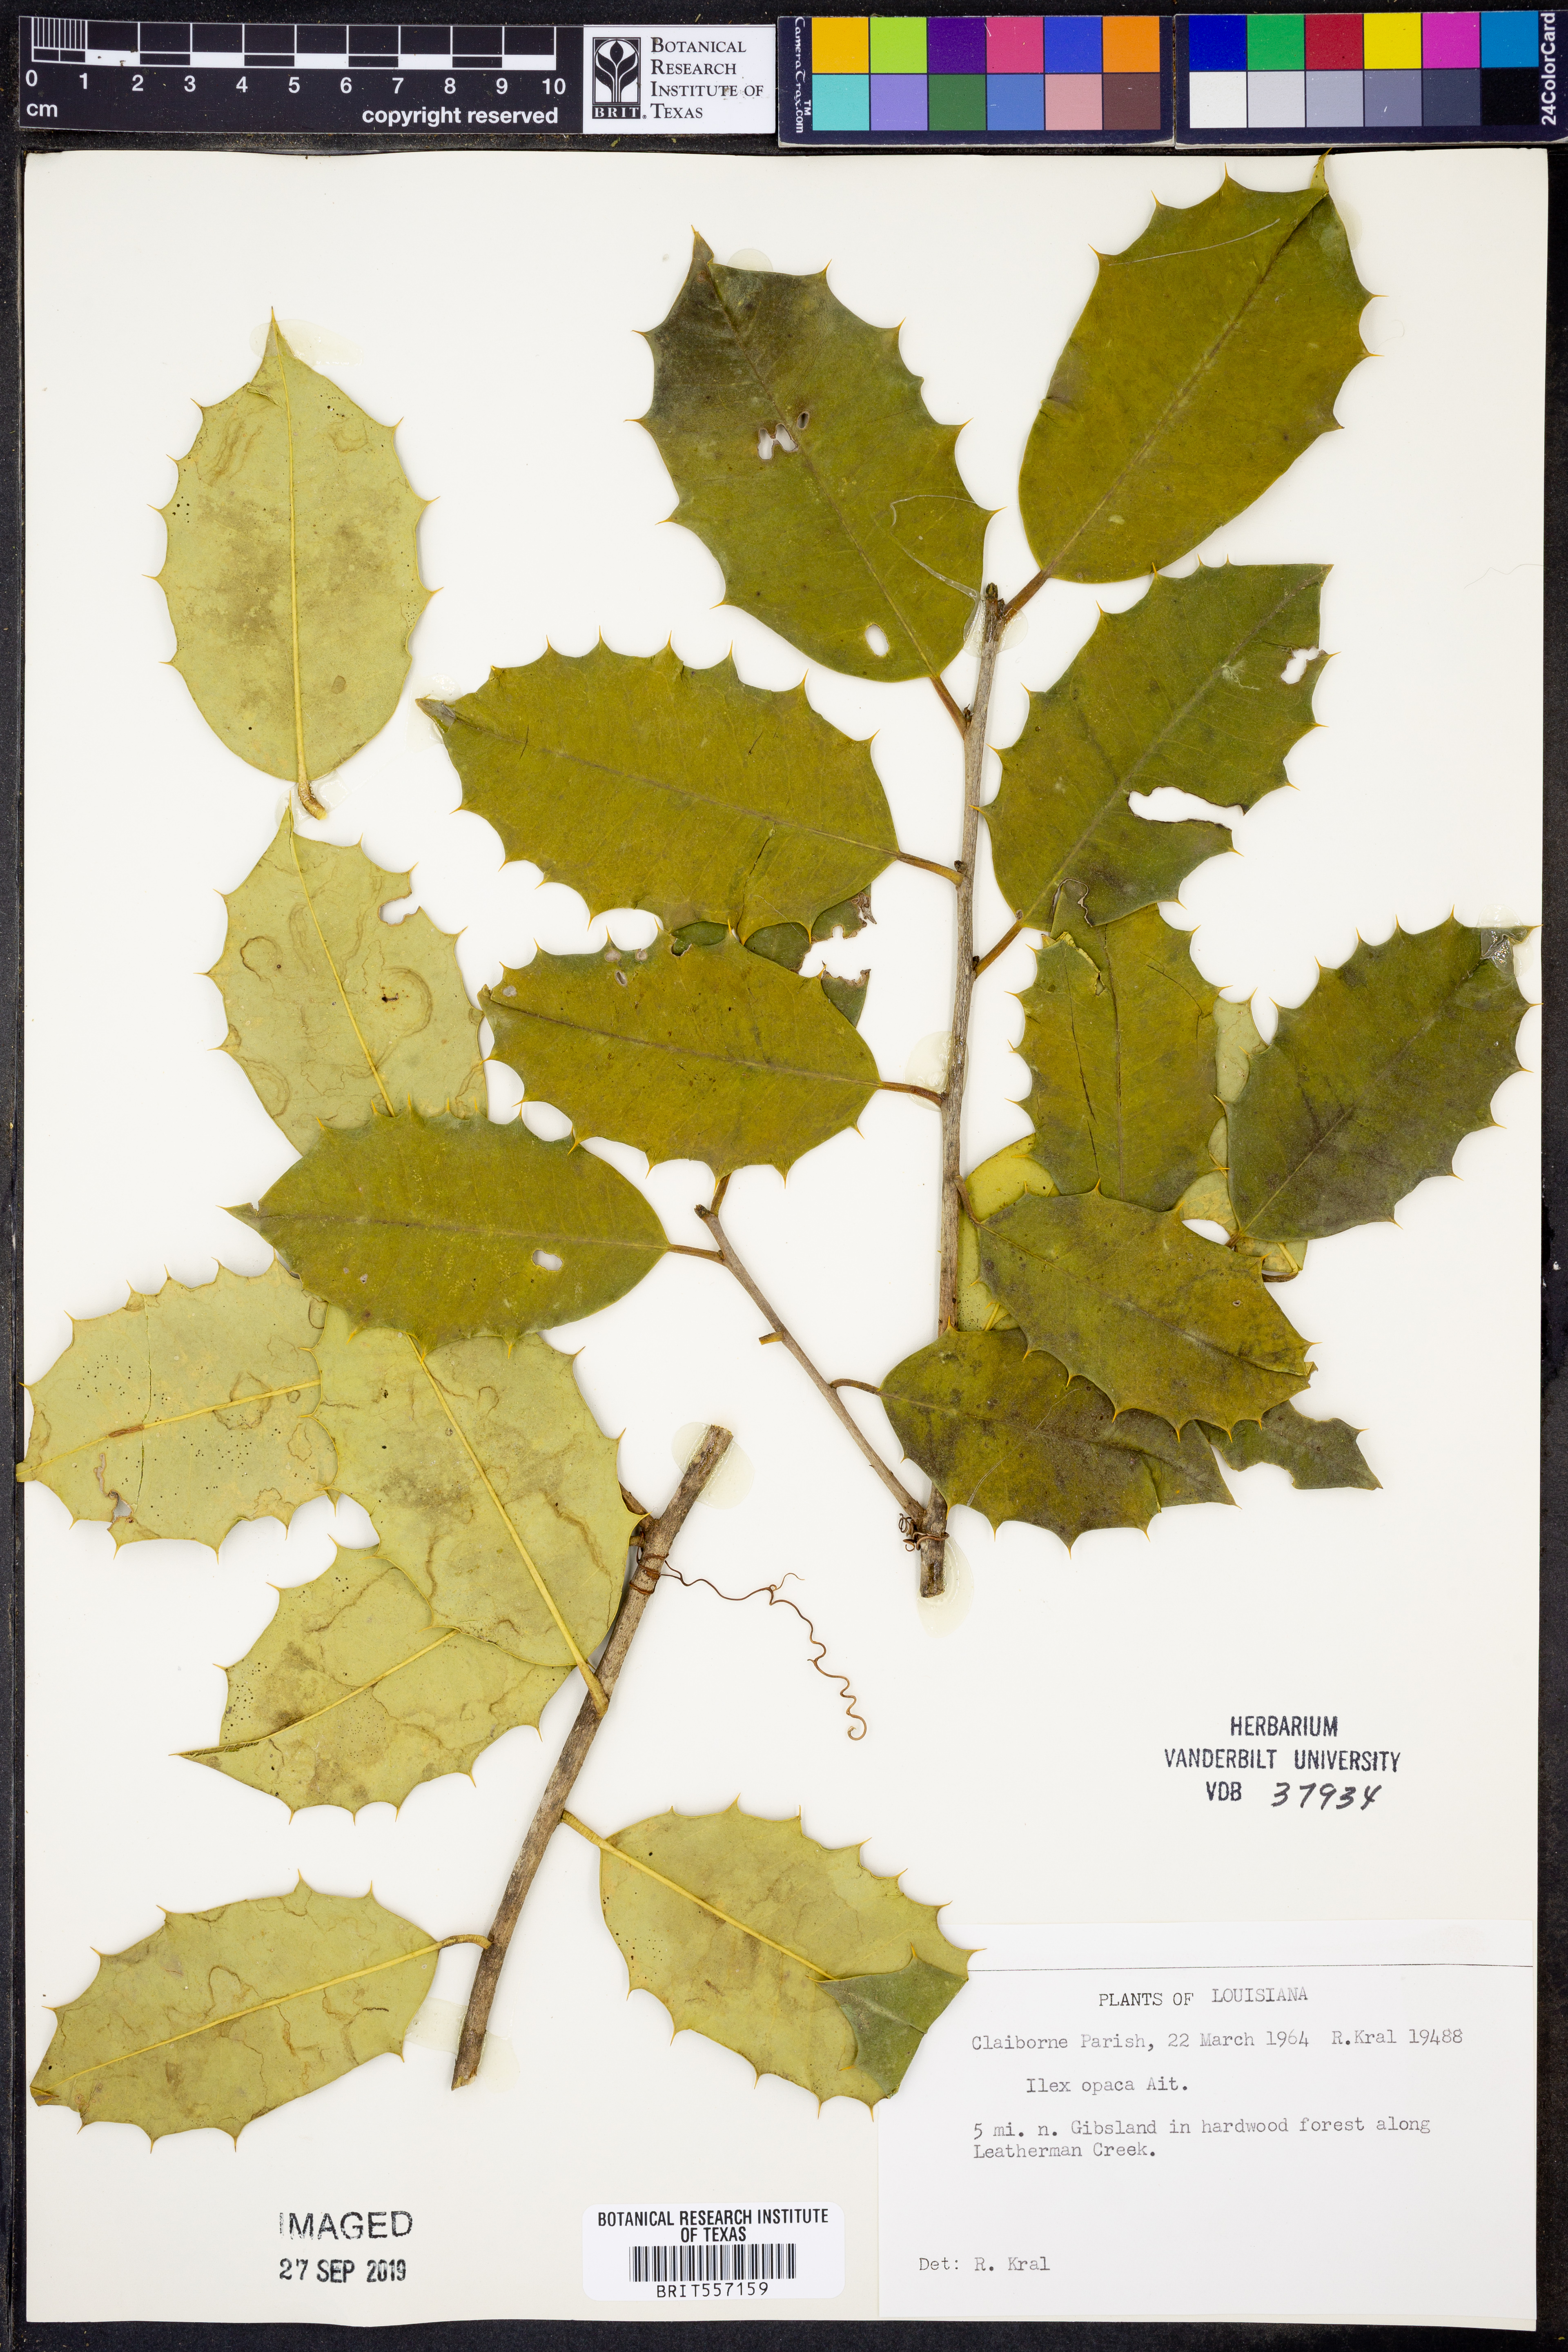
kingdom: Plantae
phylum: Tracheophyta
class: Magnoliopsida
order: Aquifoliales
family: Aquifoliaceae
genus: Ilex
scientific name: Ilex opaca
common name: American holly
